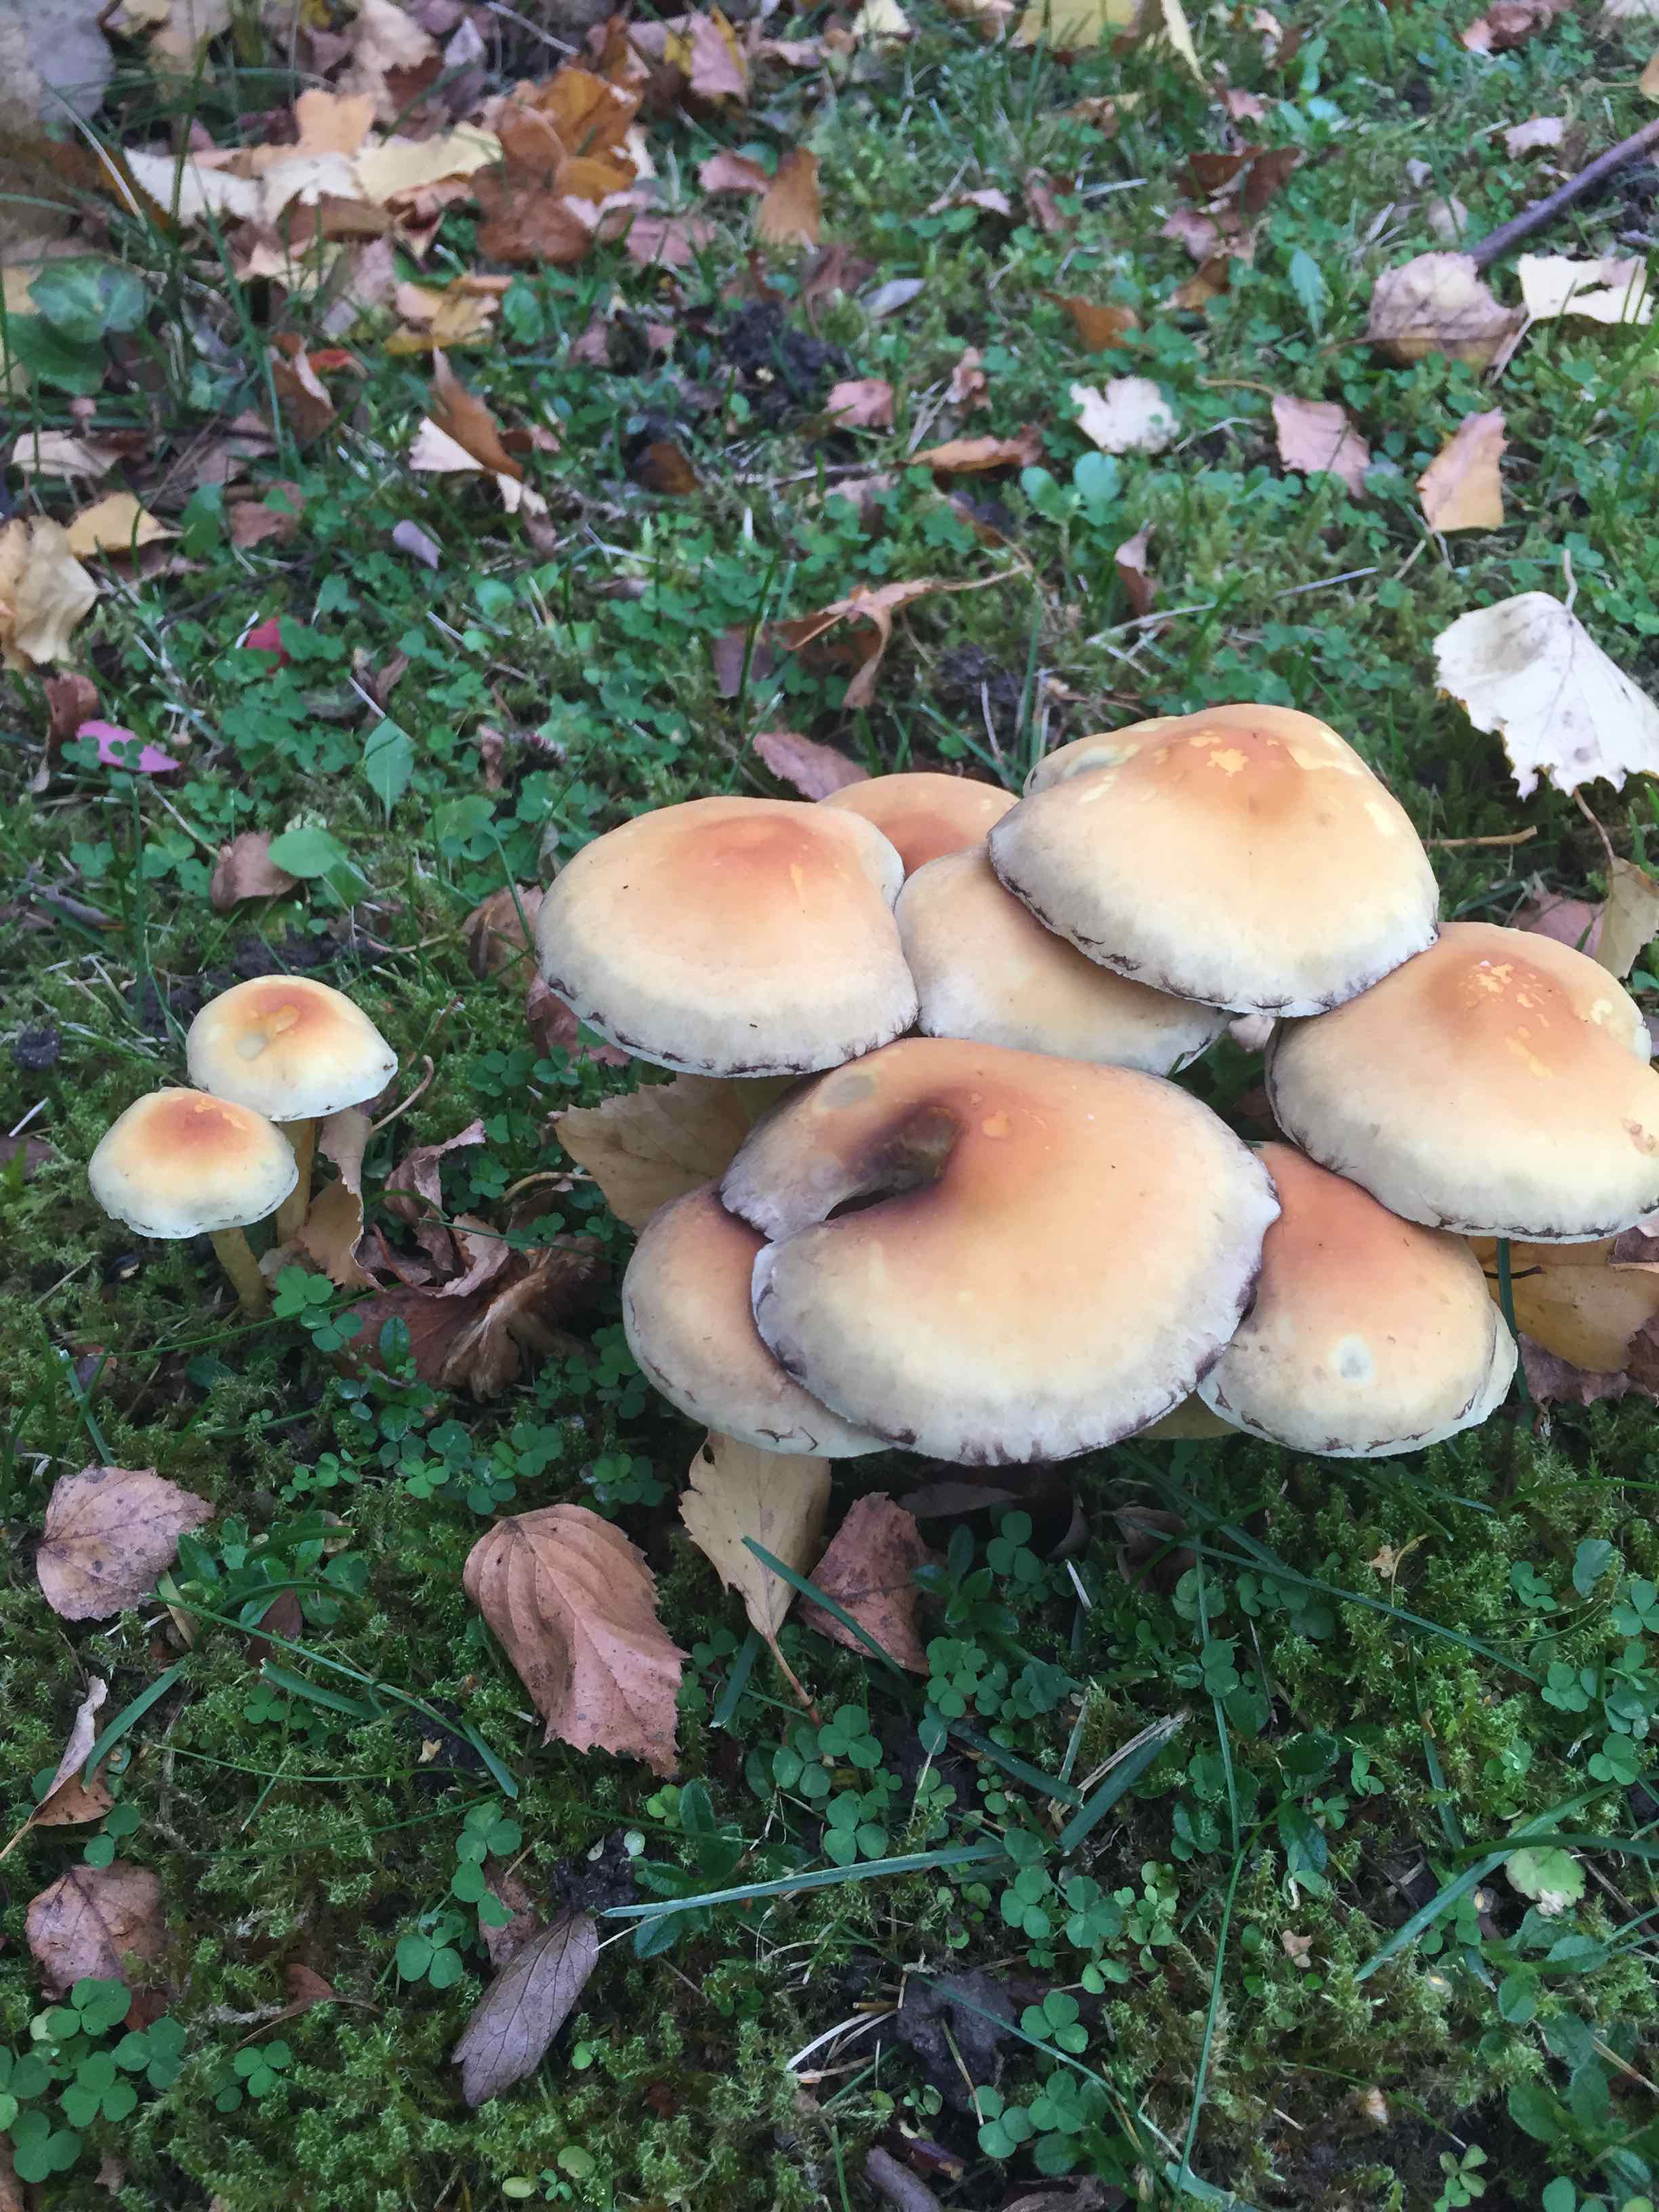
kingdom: Fungi
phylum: Basidiomycota
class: Agaricomycetes
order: Agaricales
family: Strophariaceae
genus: Hypholoma
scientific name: Hypholoma fasciculare
